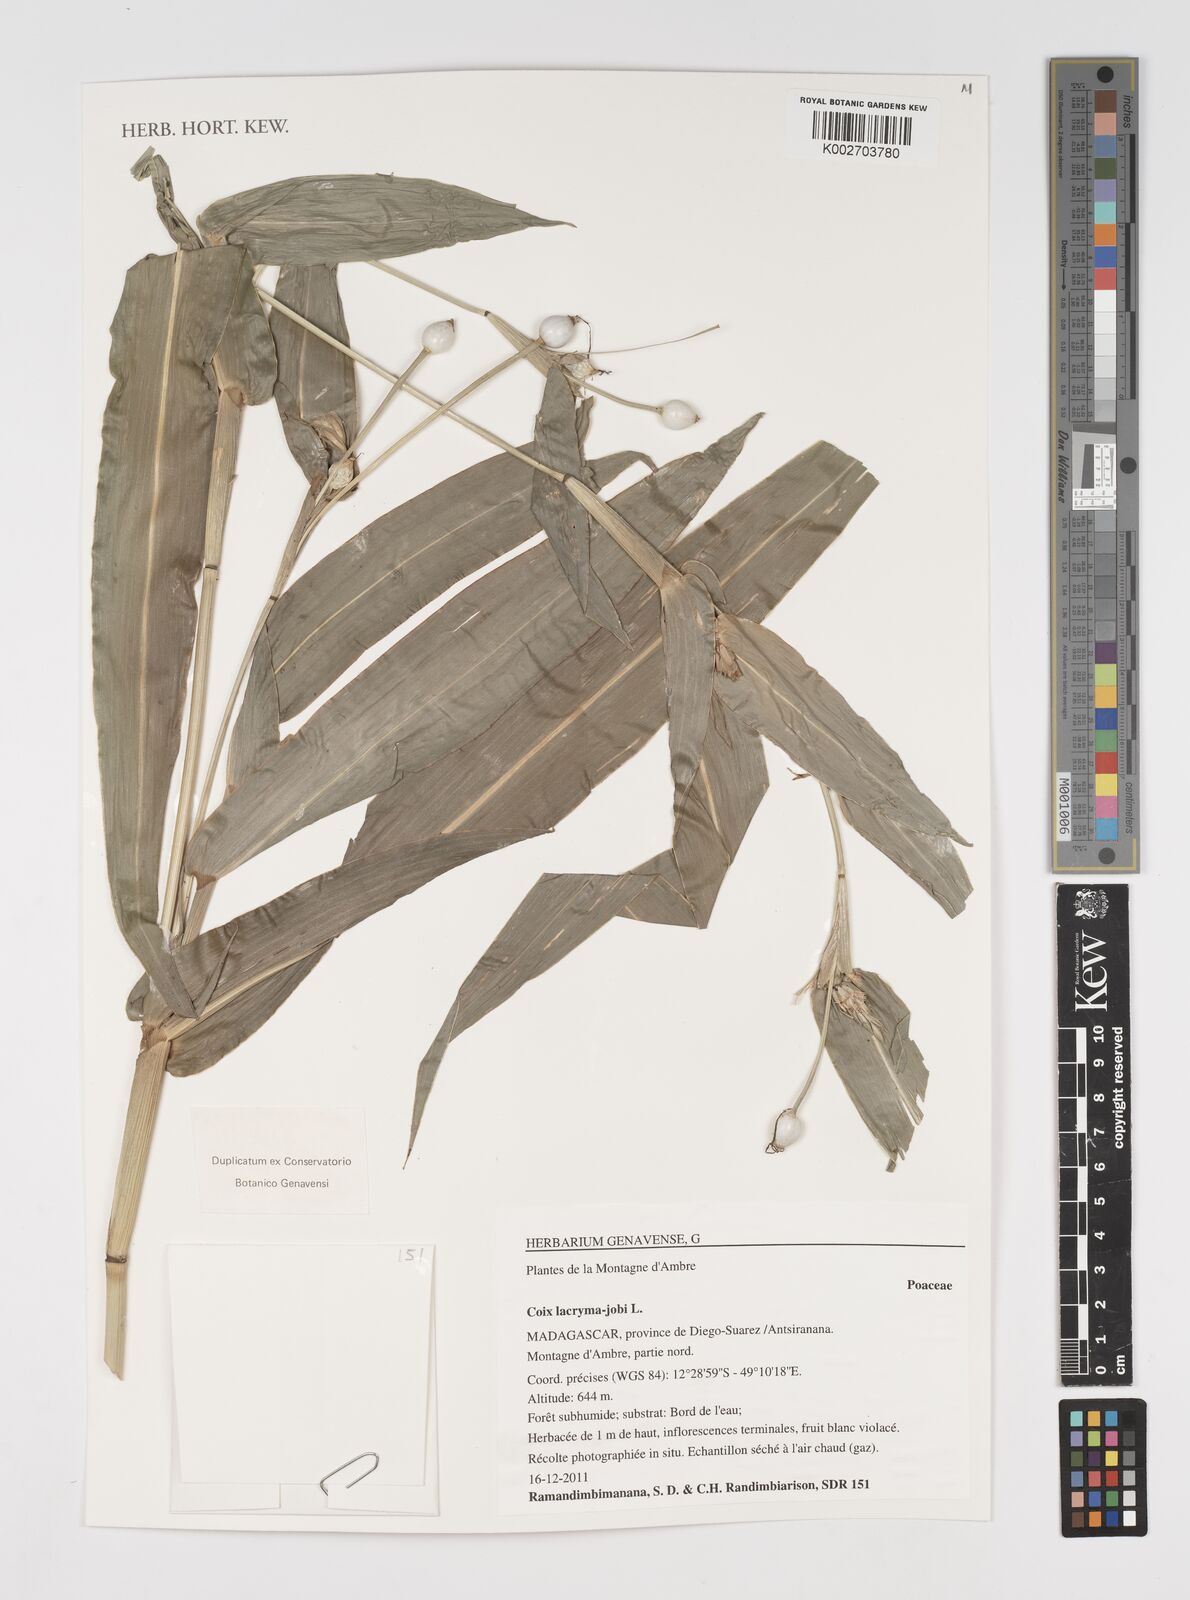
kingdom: Plantae
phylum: Tracheophyta
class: Liliopsida
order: Poales
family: Poaceae
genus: Coix
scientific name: Coix lacryma-jobi
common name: Job's tears
